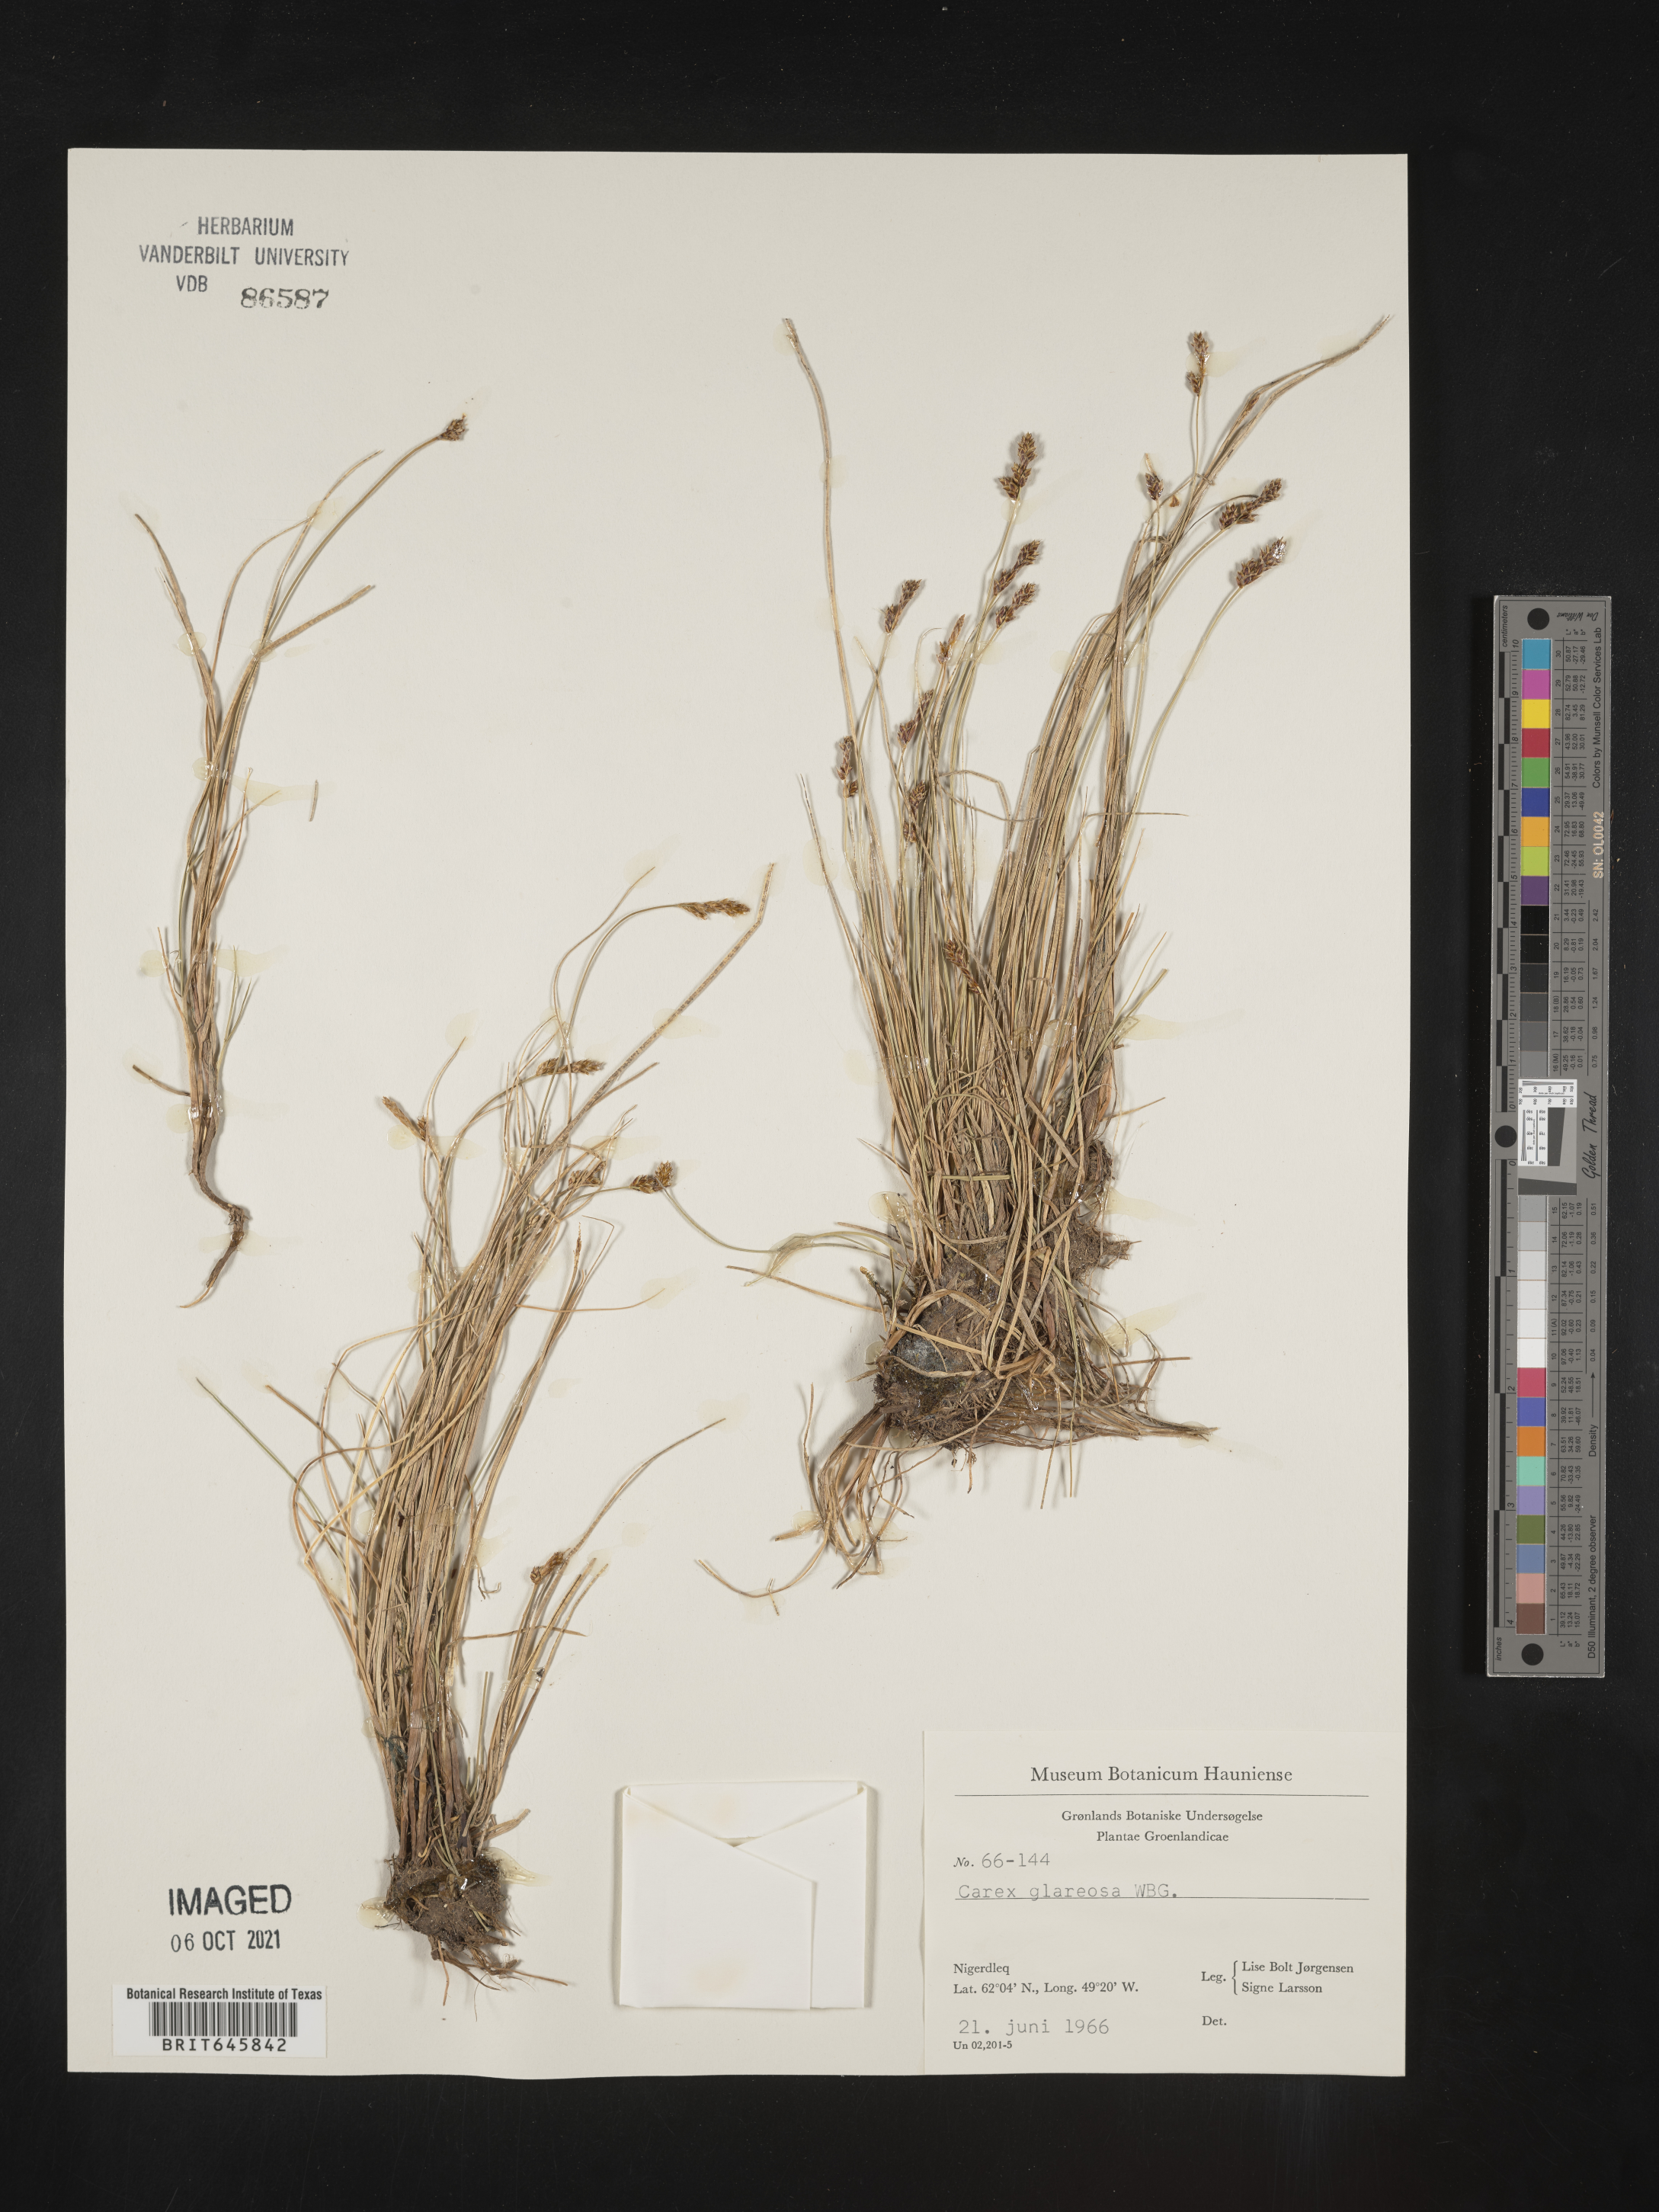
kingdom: Plantae
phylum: Tracheophyta
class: Liliopsida
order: Poales
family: Cyperaceae
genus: Carex
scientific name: Carex glareosa
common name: Clustered sedge
